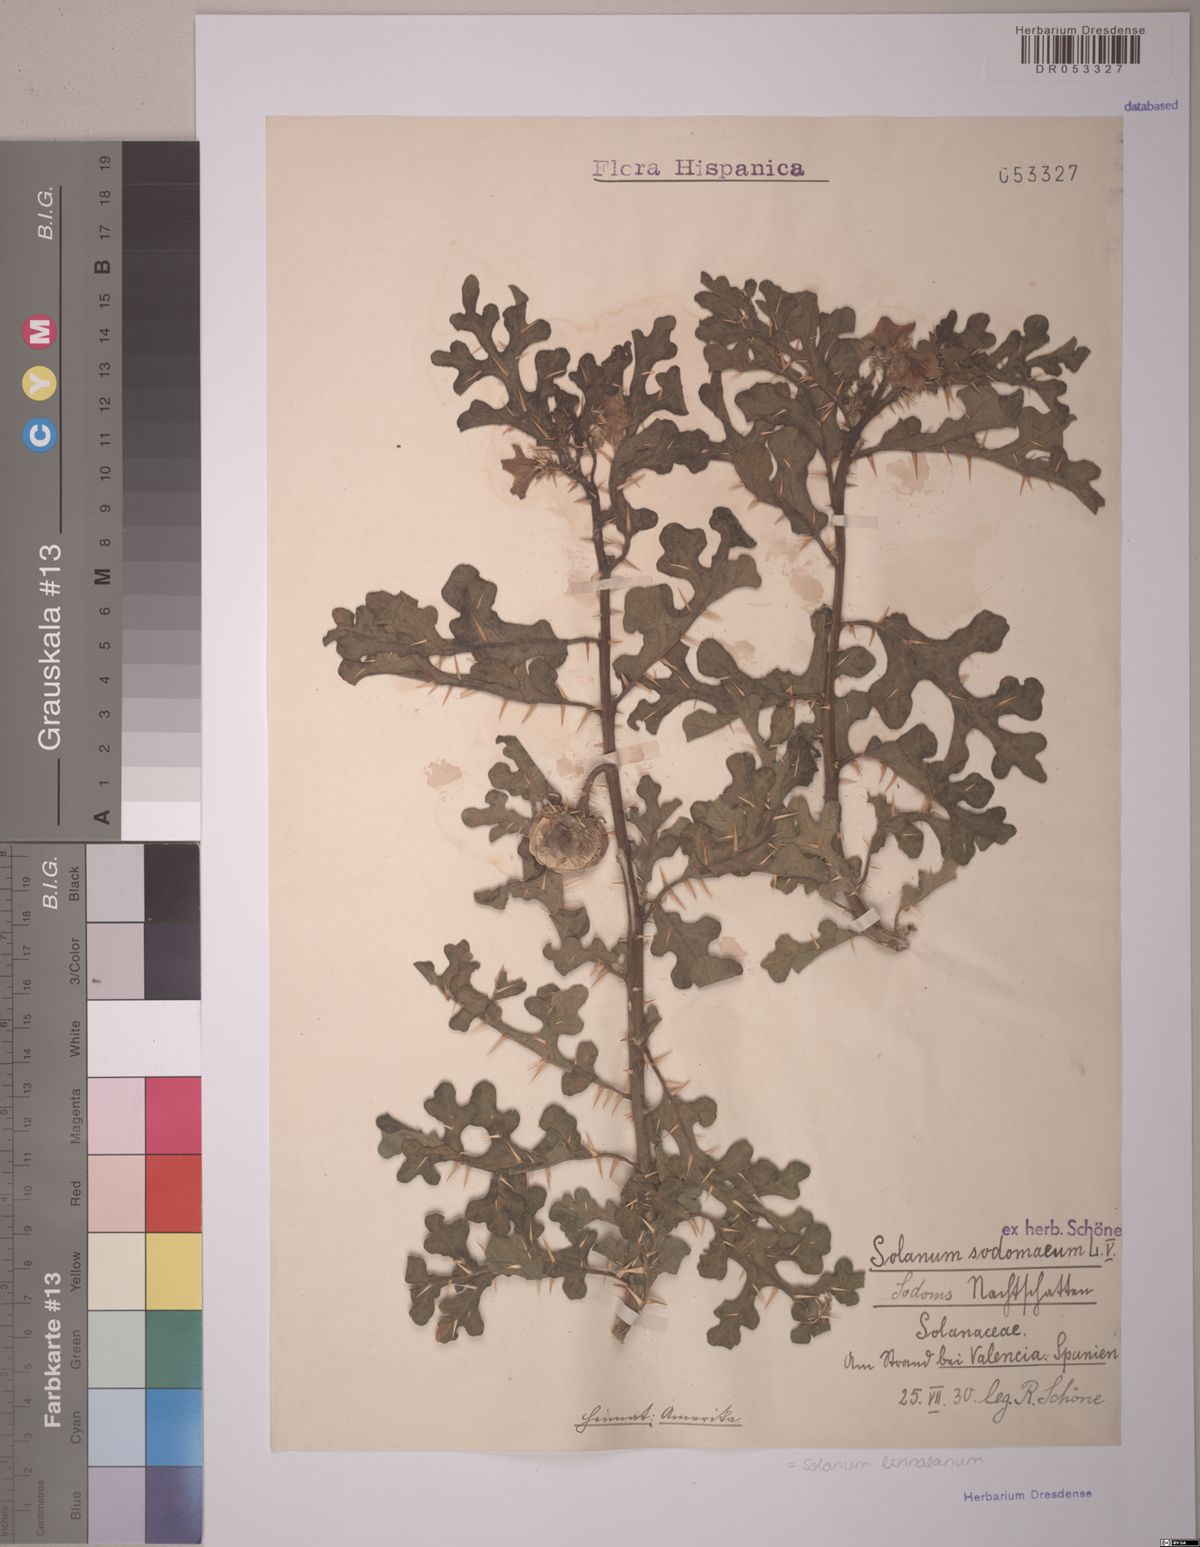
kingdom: Plantae
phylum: Tracheophyta
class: Magnoliopsida
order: Solanales
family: Solanaceae
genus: Solanum
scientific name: Solanum linnaeanum
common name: Nightshade
